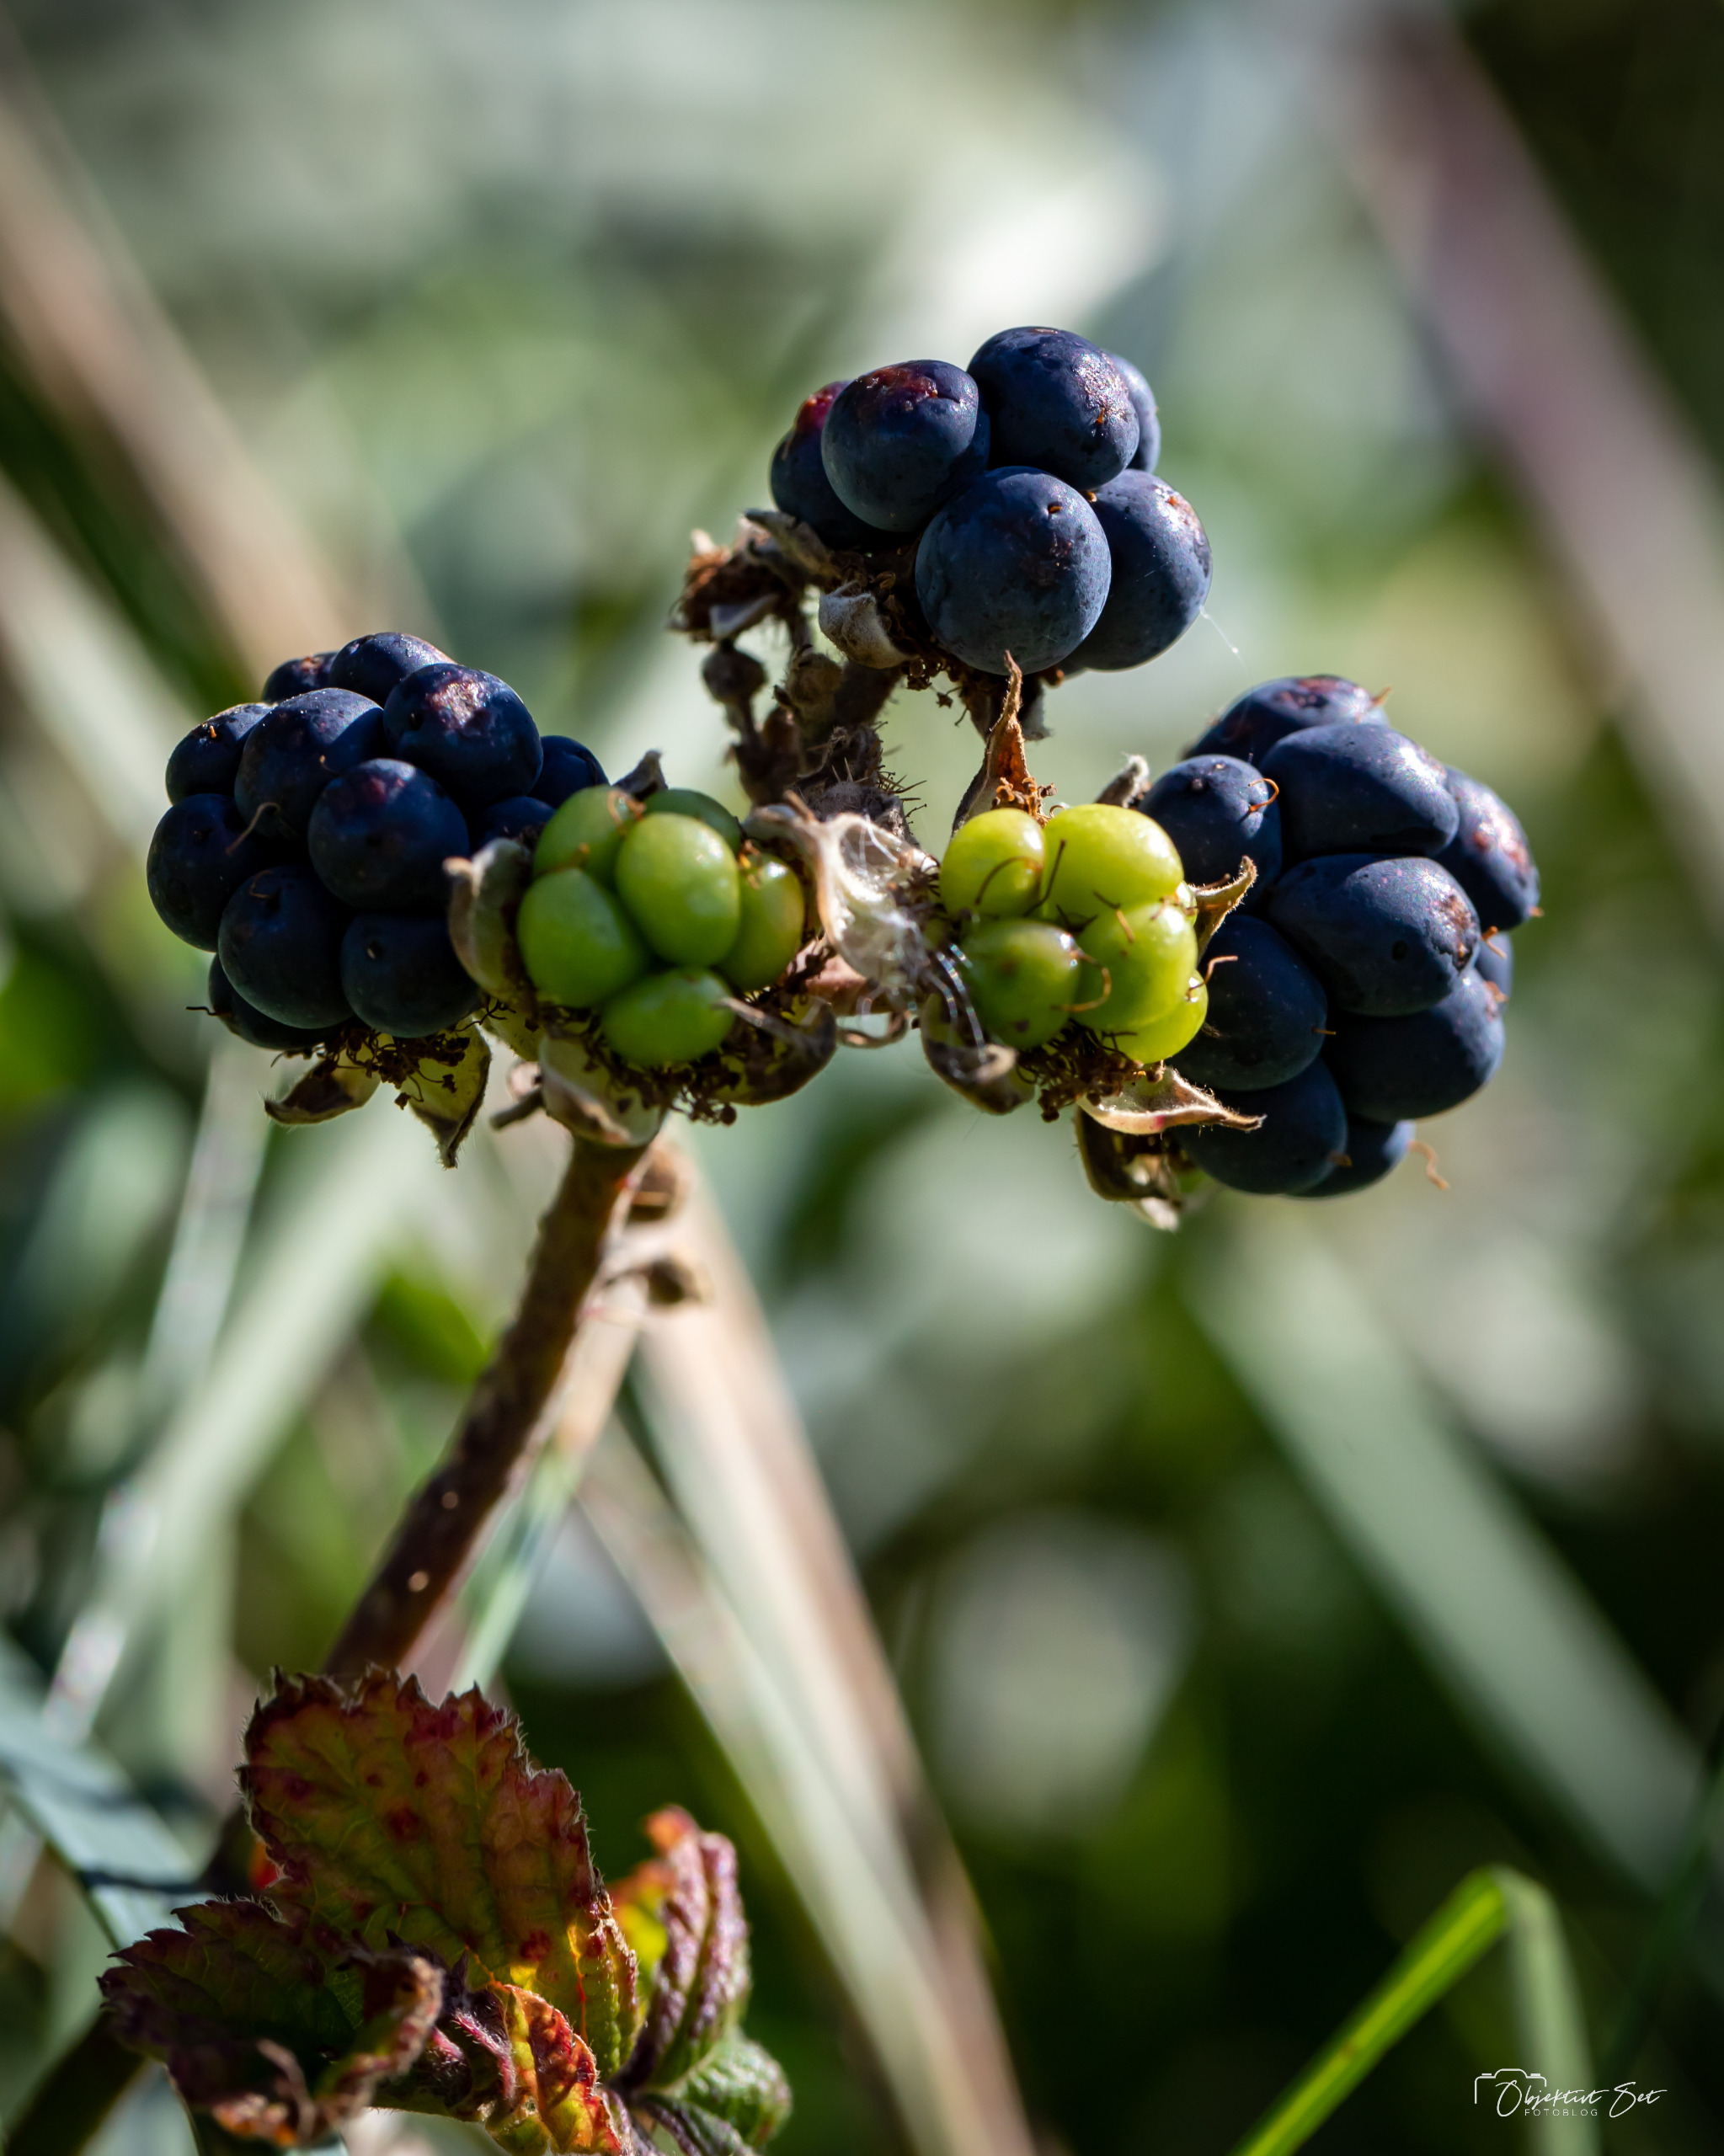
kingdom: Plantae
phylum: Tracheophyta
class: Magnoliopsida
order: Rosales
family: Rosaceae
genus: Rubus
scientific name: Rubus
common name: Klyngerslægten
